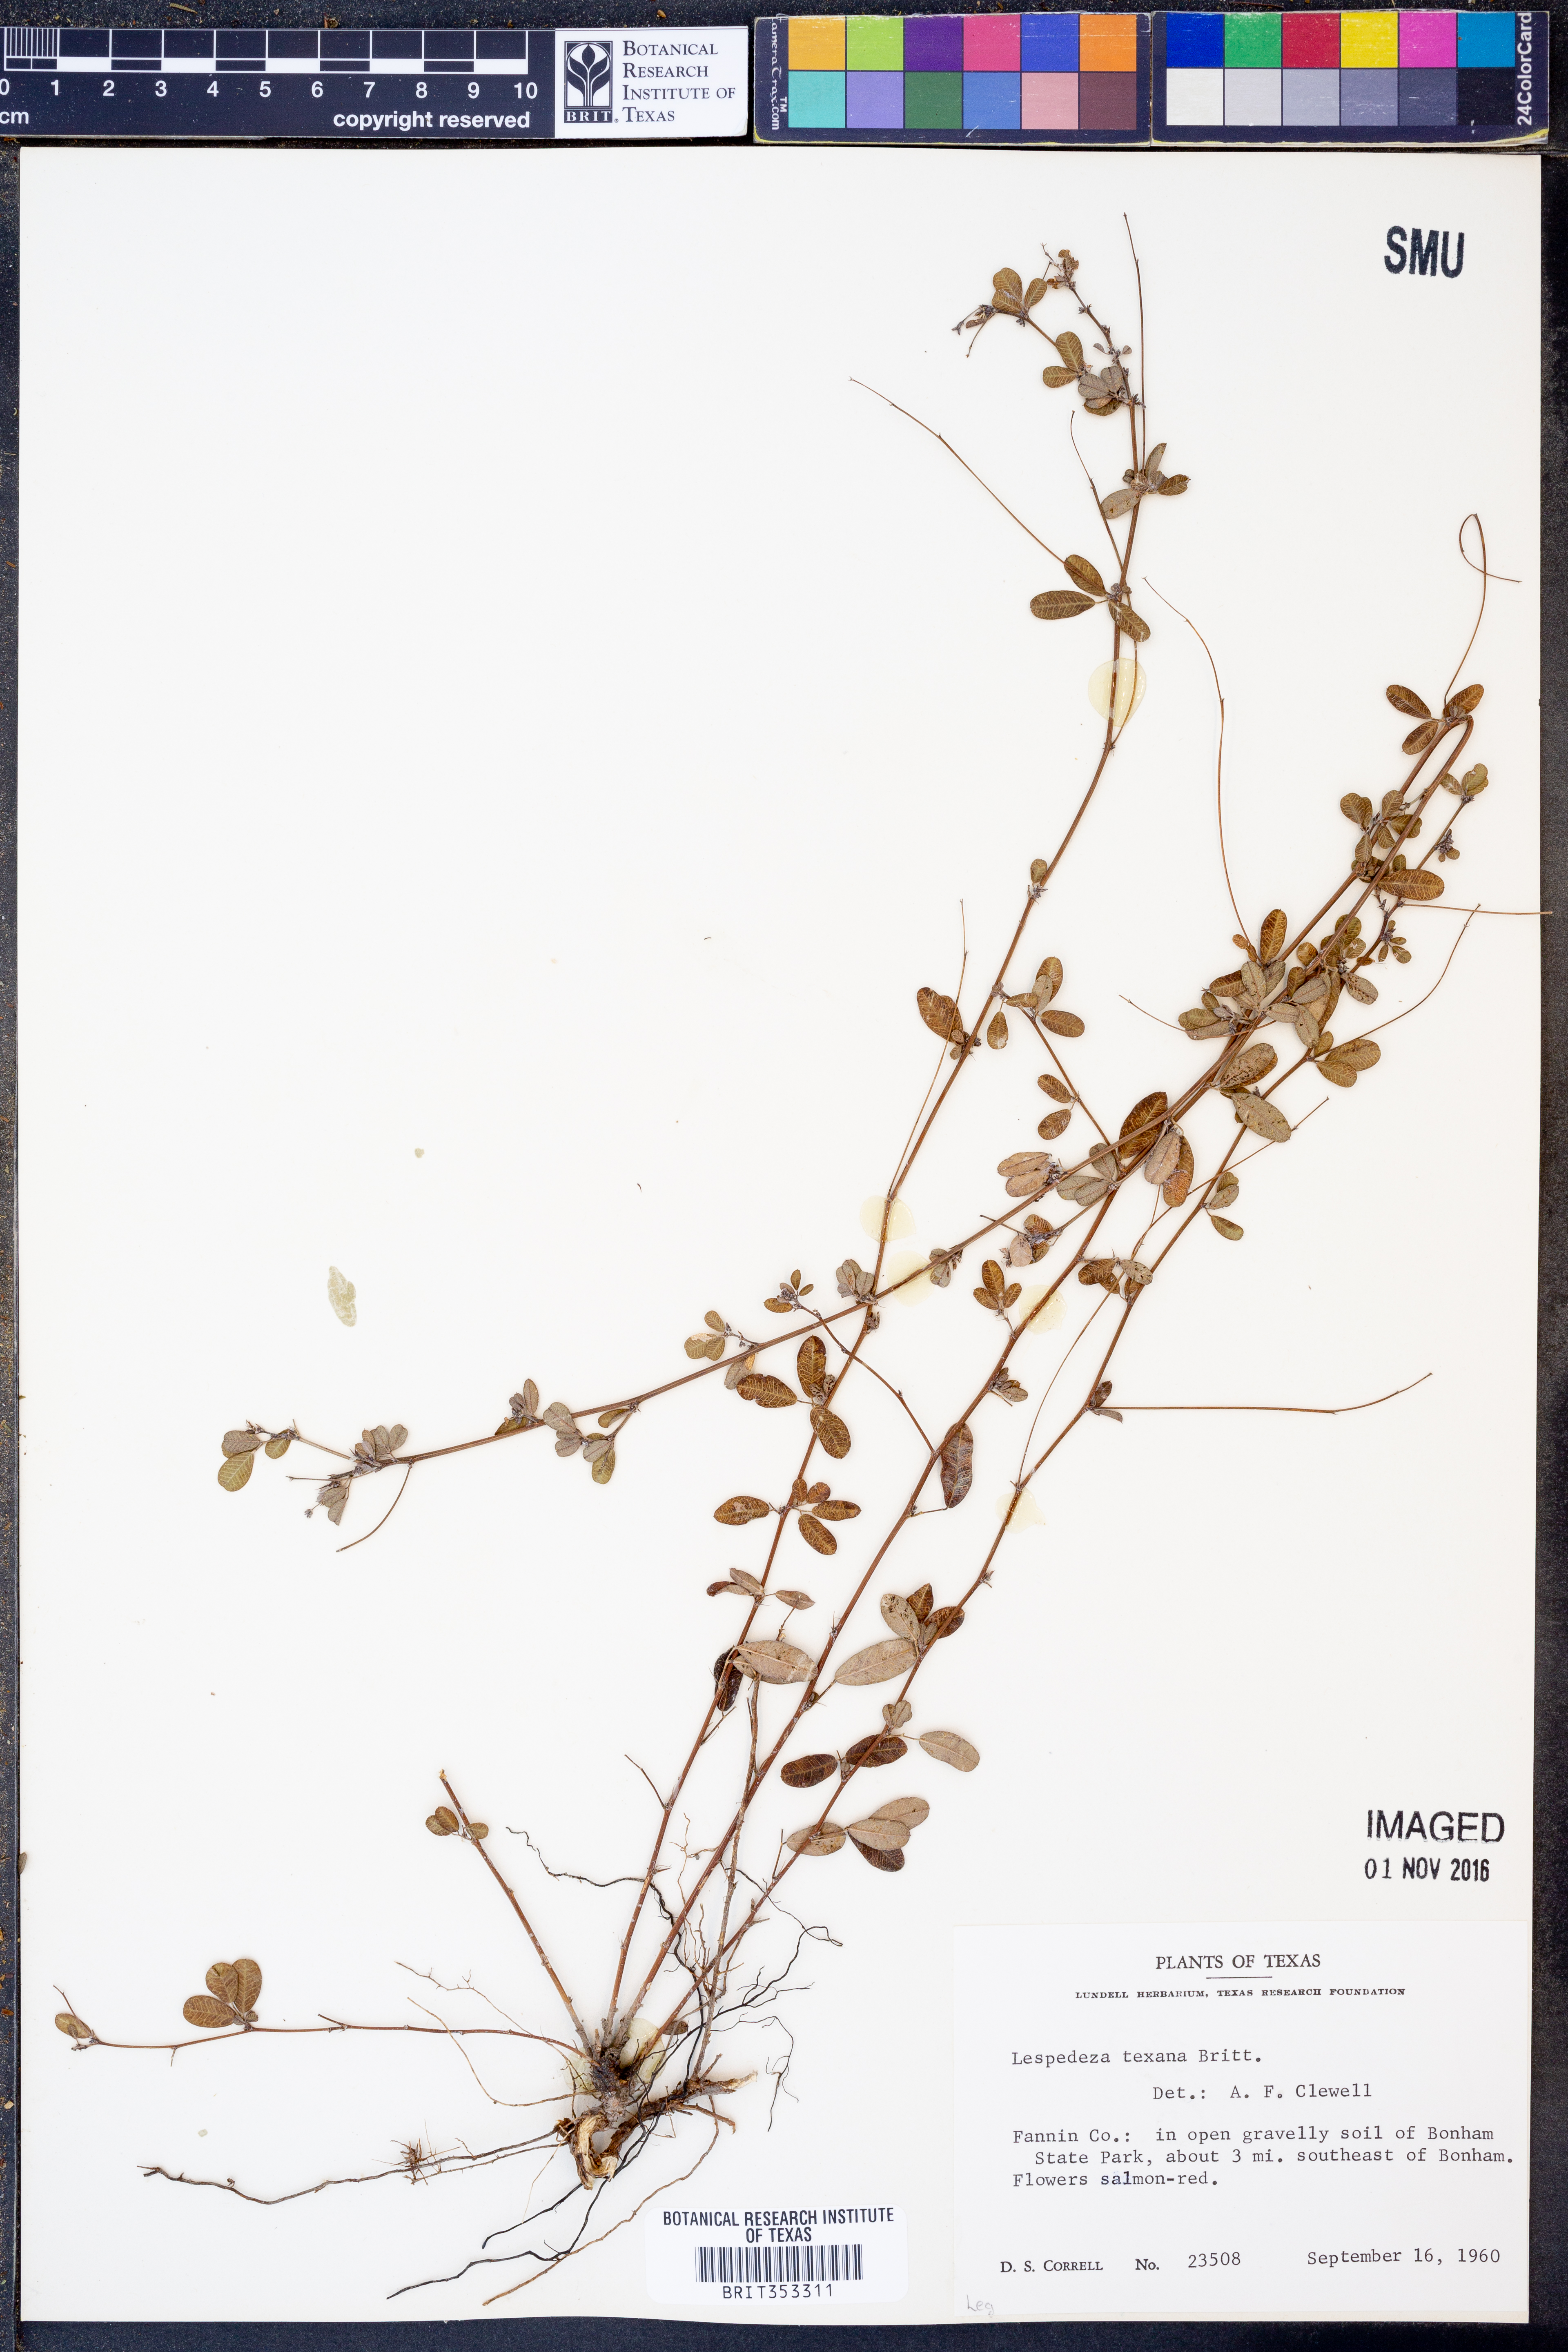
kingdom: Plantae
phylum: Tracheophyta
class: Magnoliopsida
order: Fabales
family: Fabaceae
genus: Lespedeza
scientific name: Lespedeza texana
